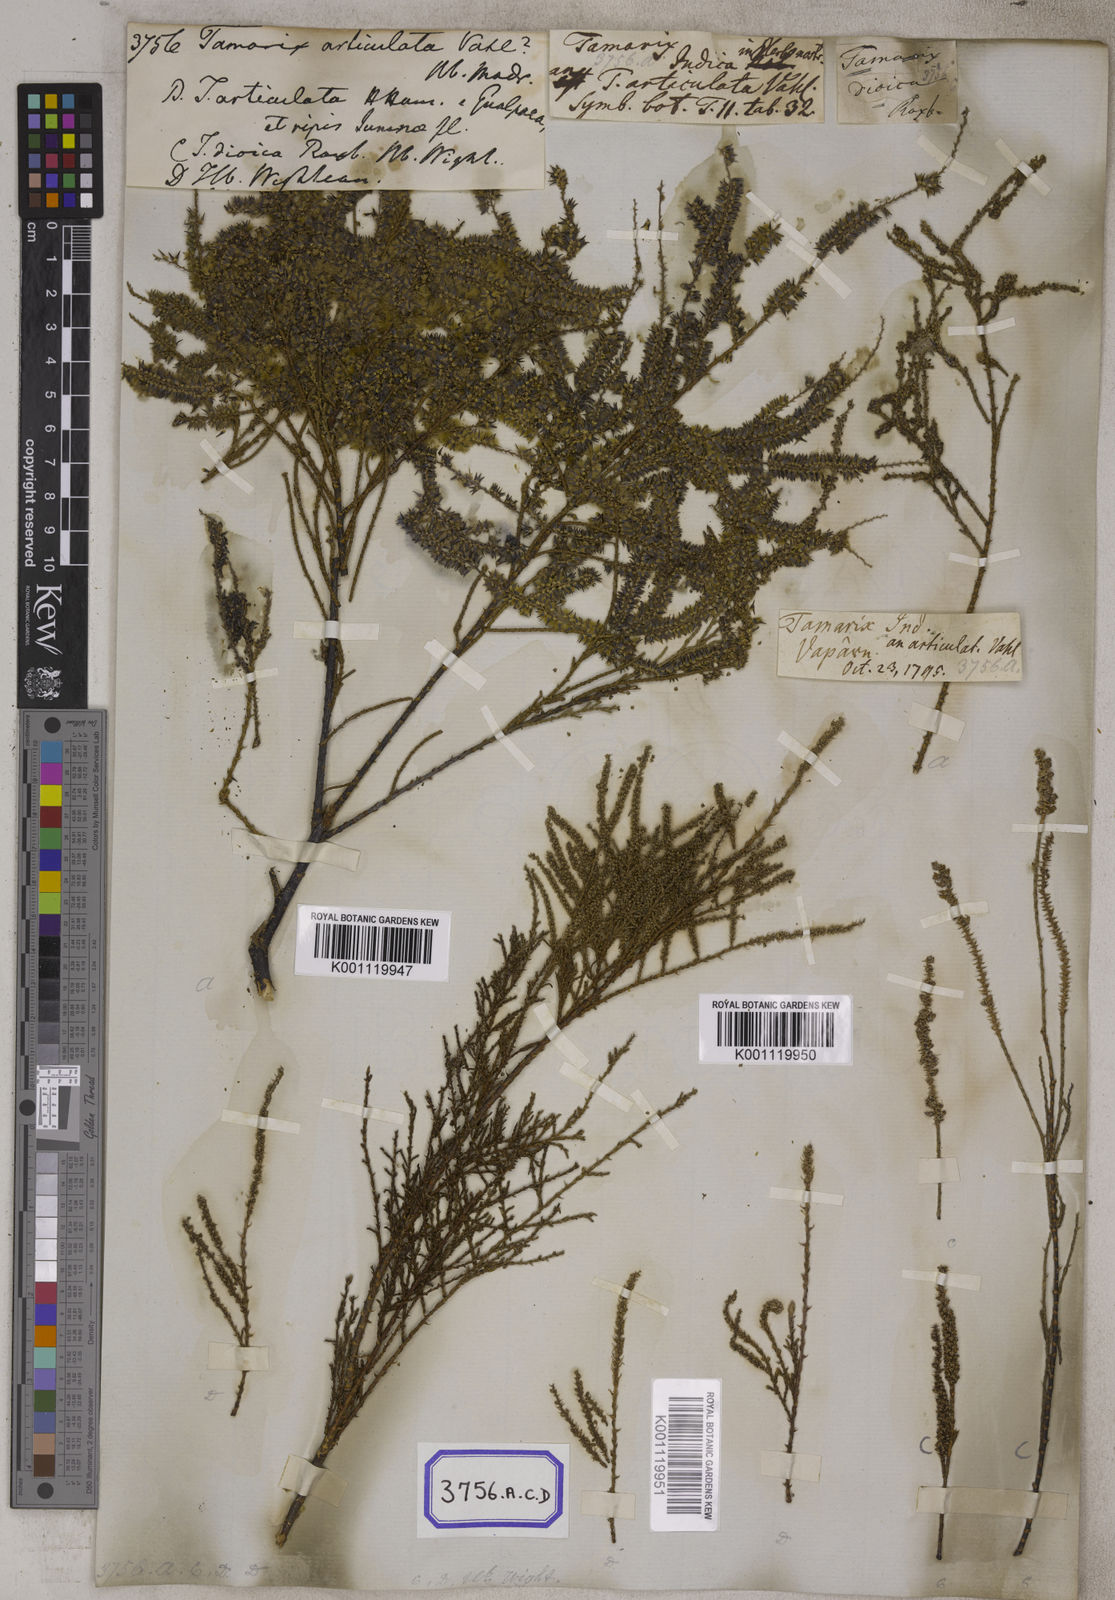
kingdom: Plantae
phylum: Tracheophyta
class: Magnoliopsida
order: Caryophyllales
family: Tamaricaceae
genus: Tamarix
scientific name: Tamarix aphylla
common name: Athel tamarisk
